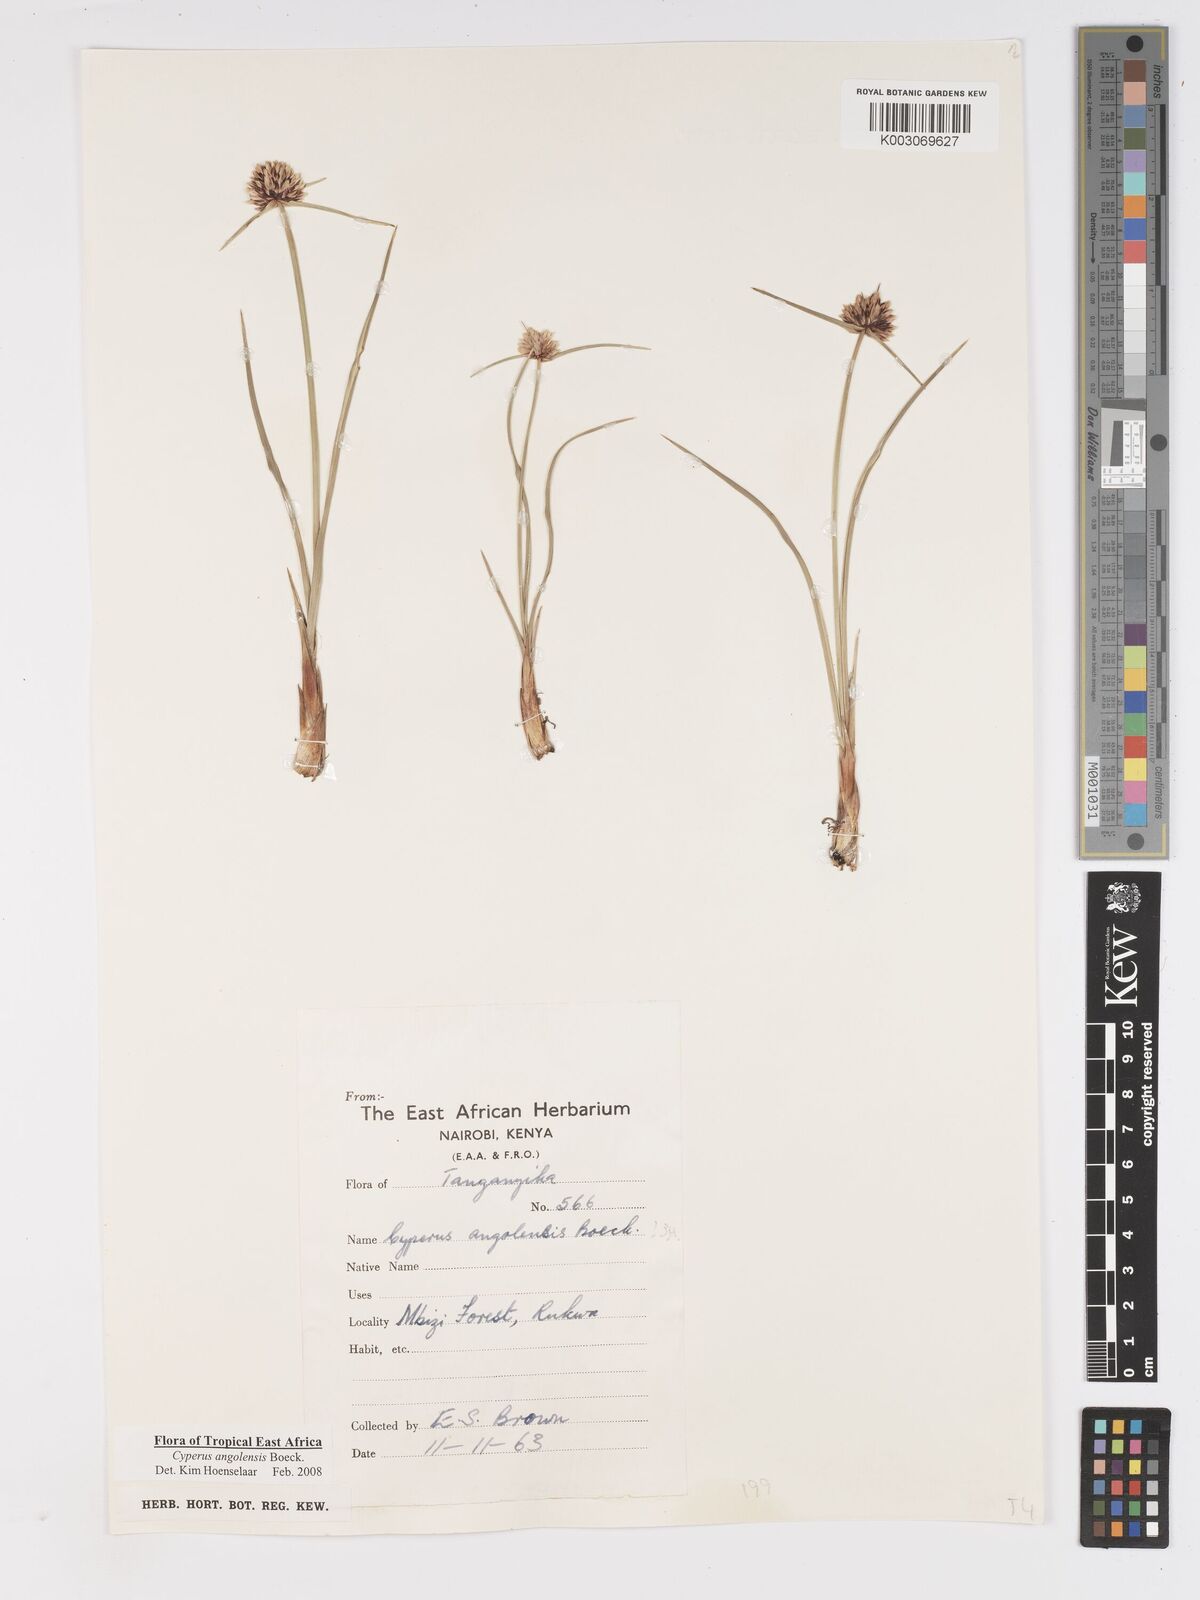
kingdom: Plantae
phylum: Tracheophyta
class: Liliopsida
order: Poales
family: Cyperaceae
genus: Cyperus
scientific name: Cyperus angolensis
